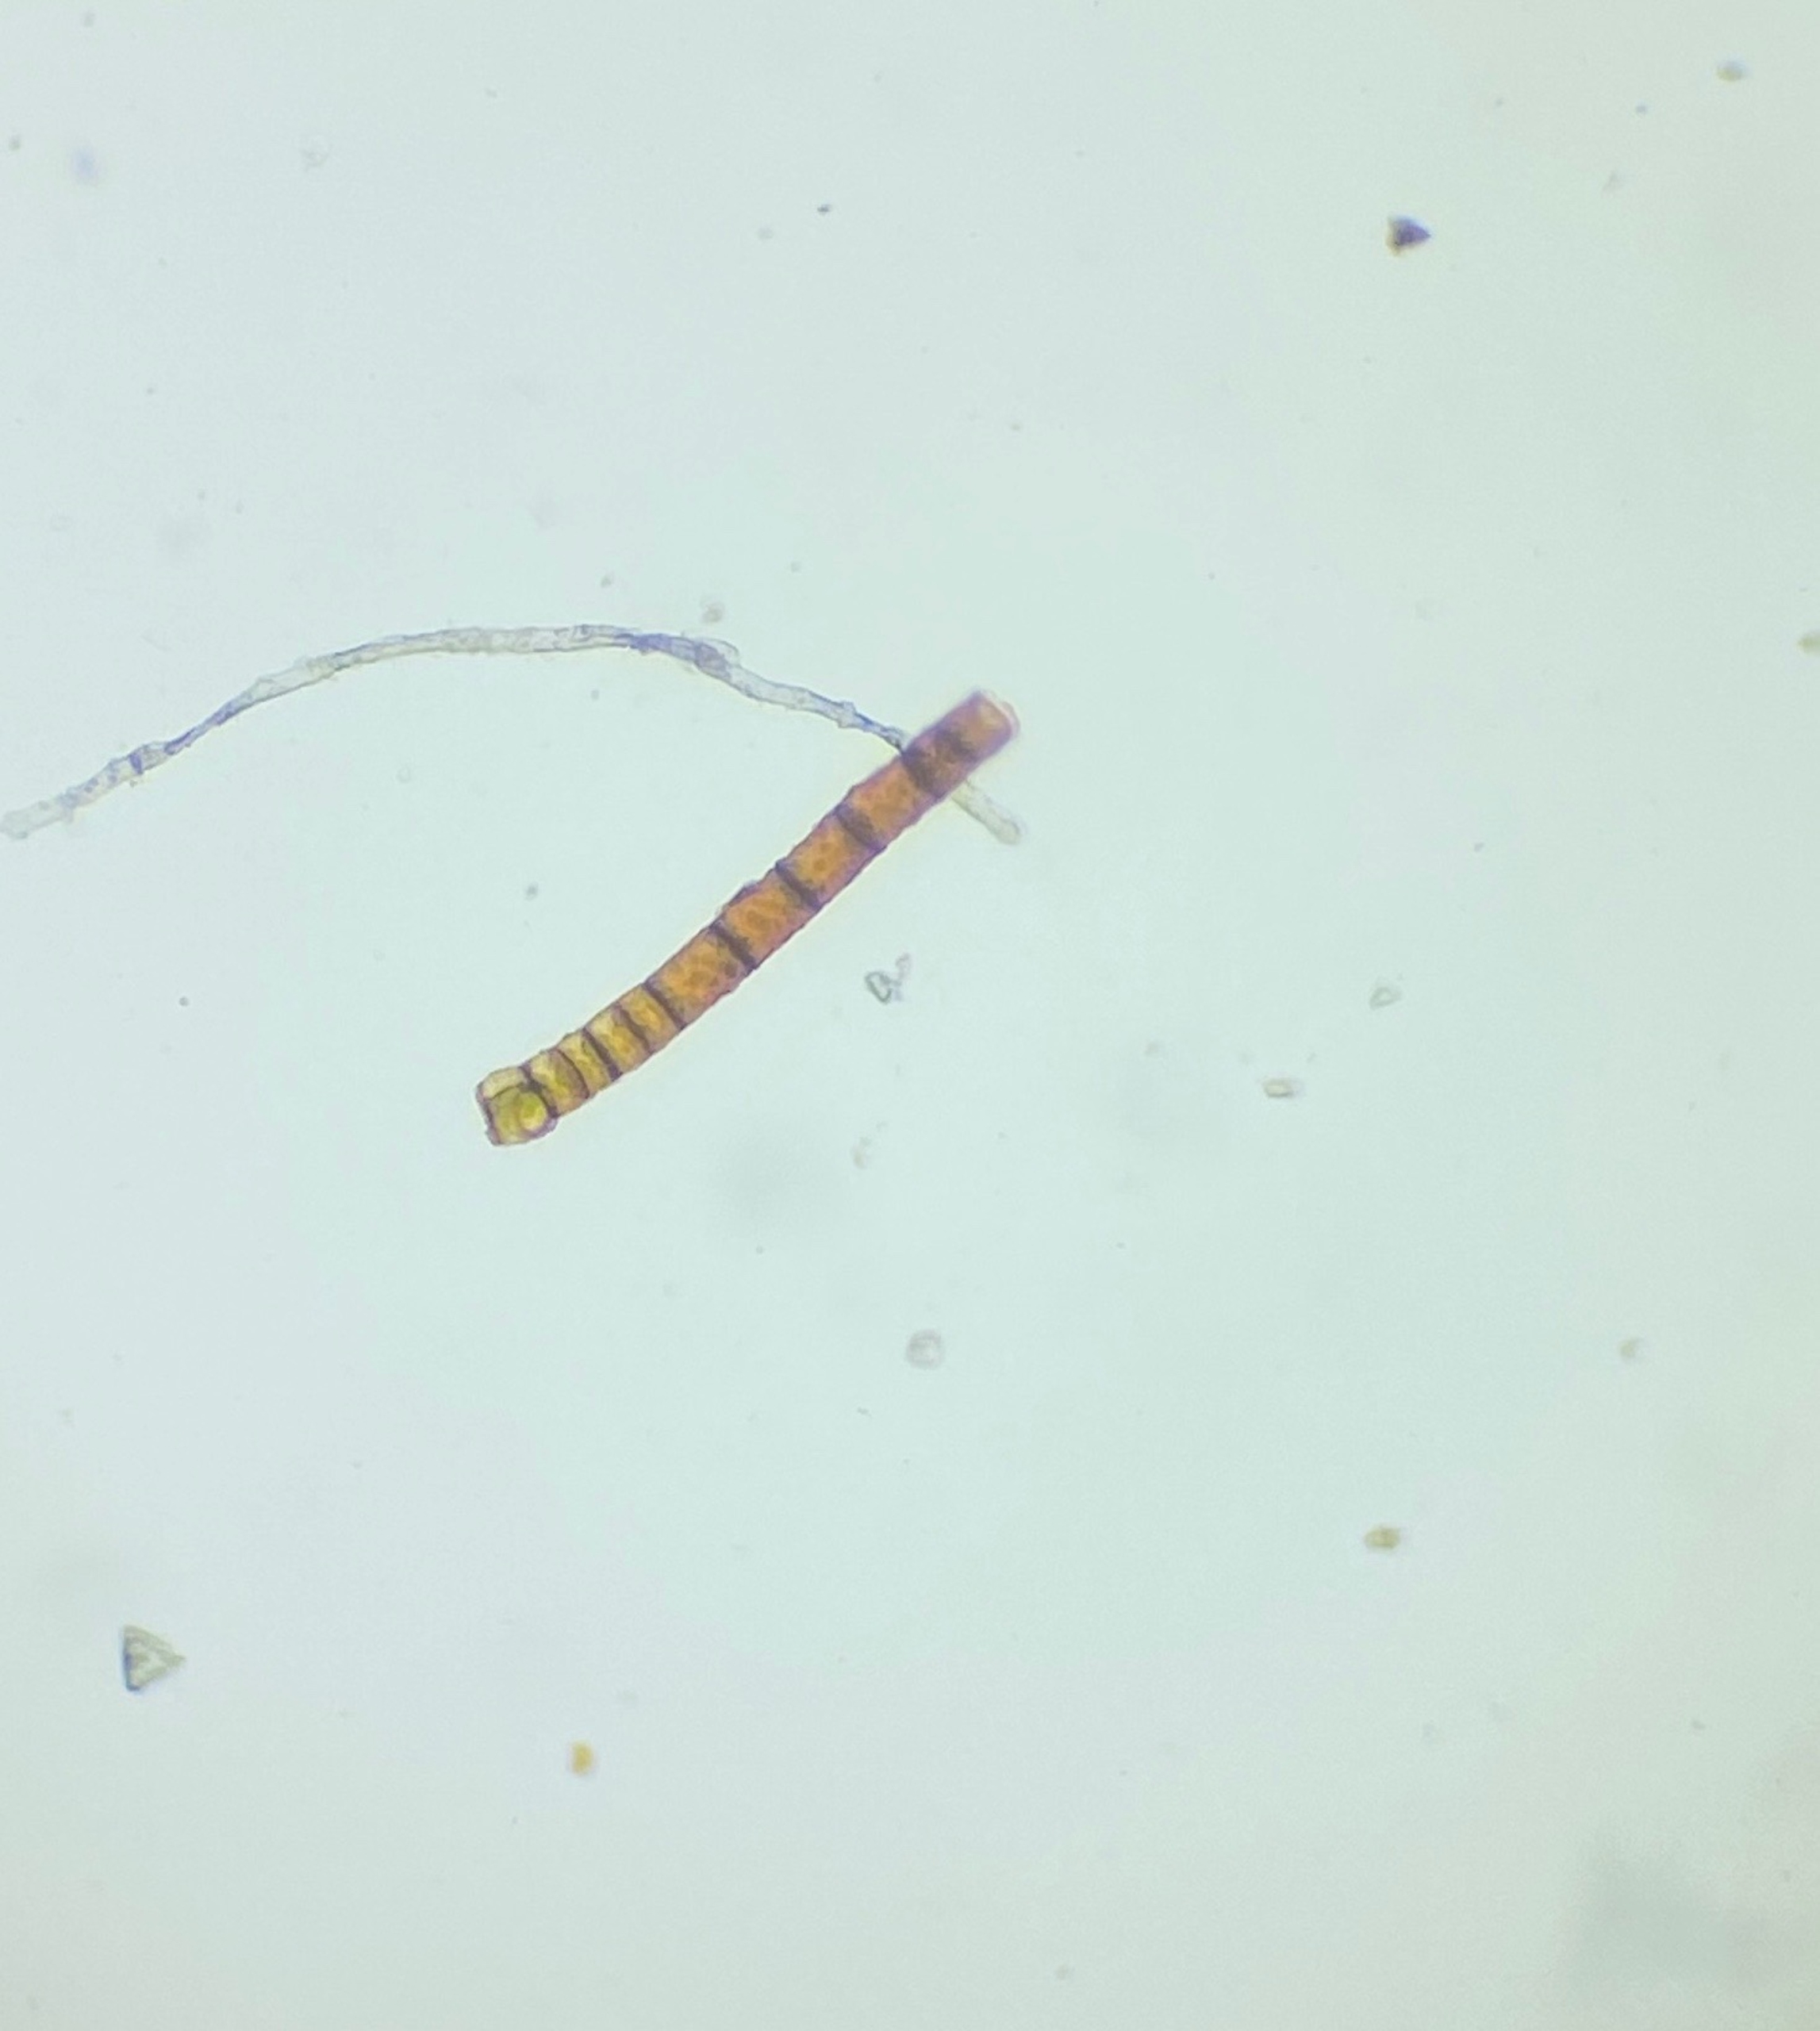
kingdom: Plantae
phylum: Bryophyta
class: Bryopsida
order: Encalyptales
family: Encalyptaceae
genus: Encalypta
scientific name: Encalypta streptocarpa
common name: Stor klokkehætte
